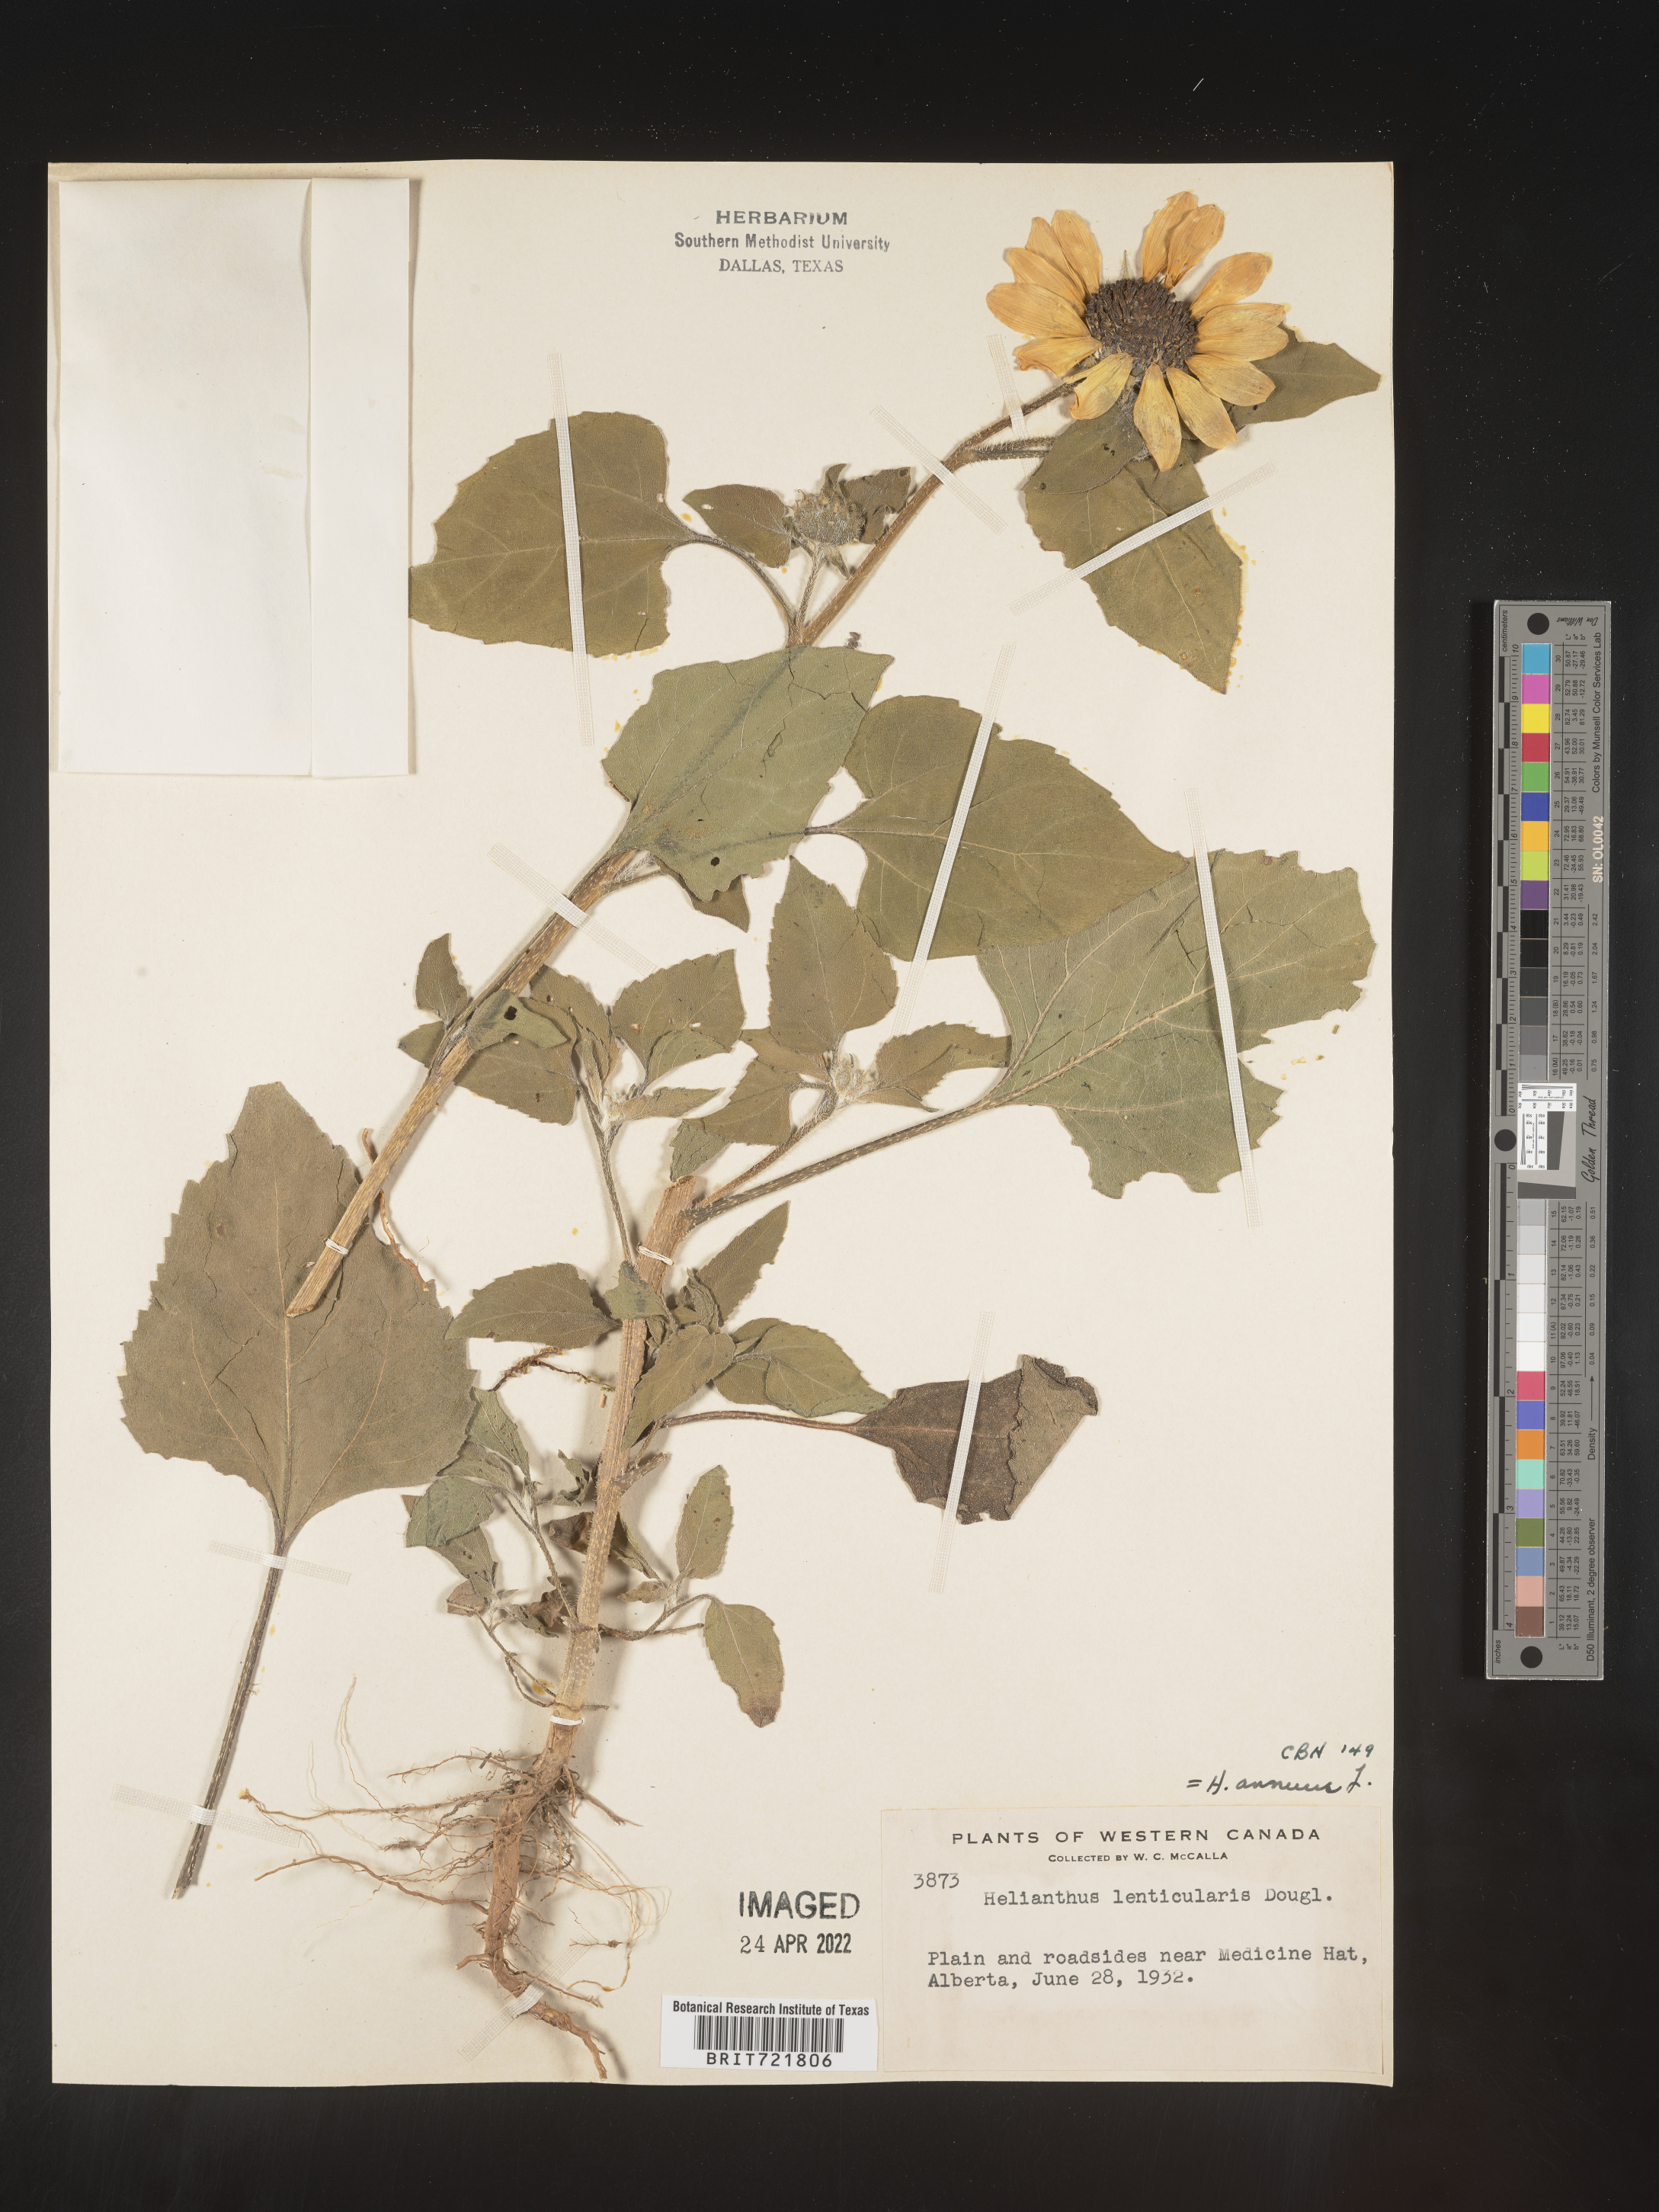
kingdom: Plantae
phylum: Tracheophyta
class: Magnoliopsida
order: Asterales
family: Asteraceae
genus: Helianthus
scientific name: Helianthus annuus
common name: Sunflower
